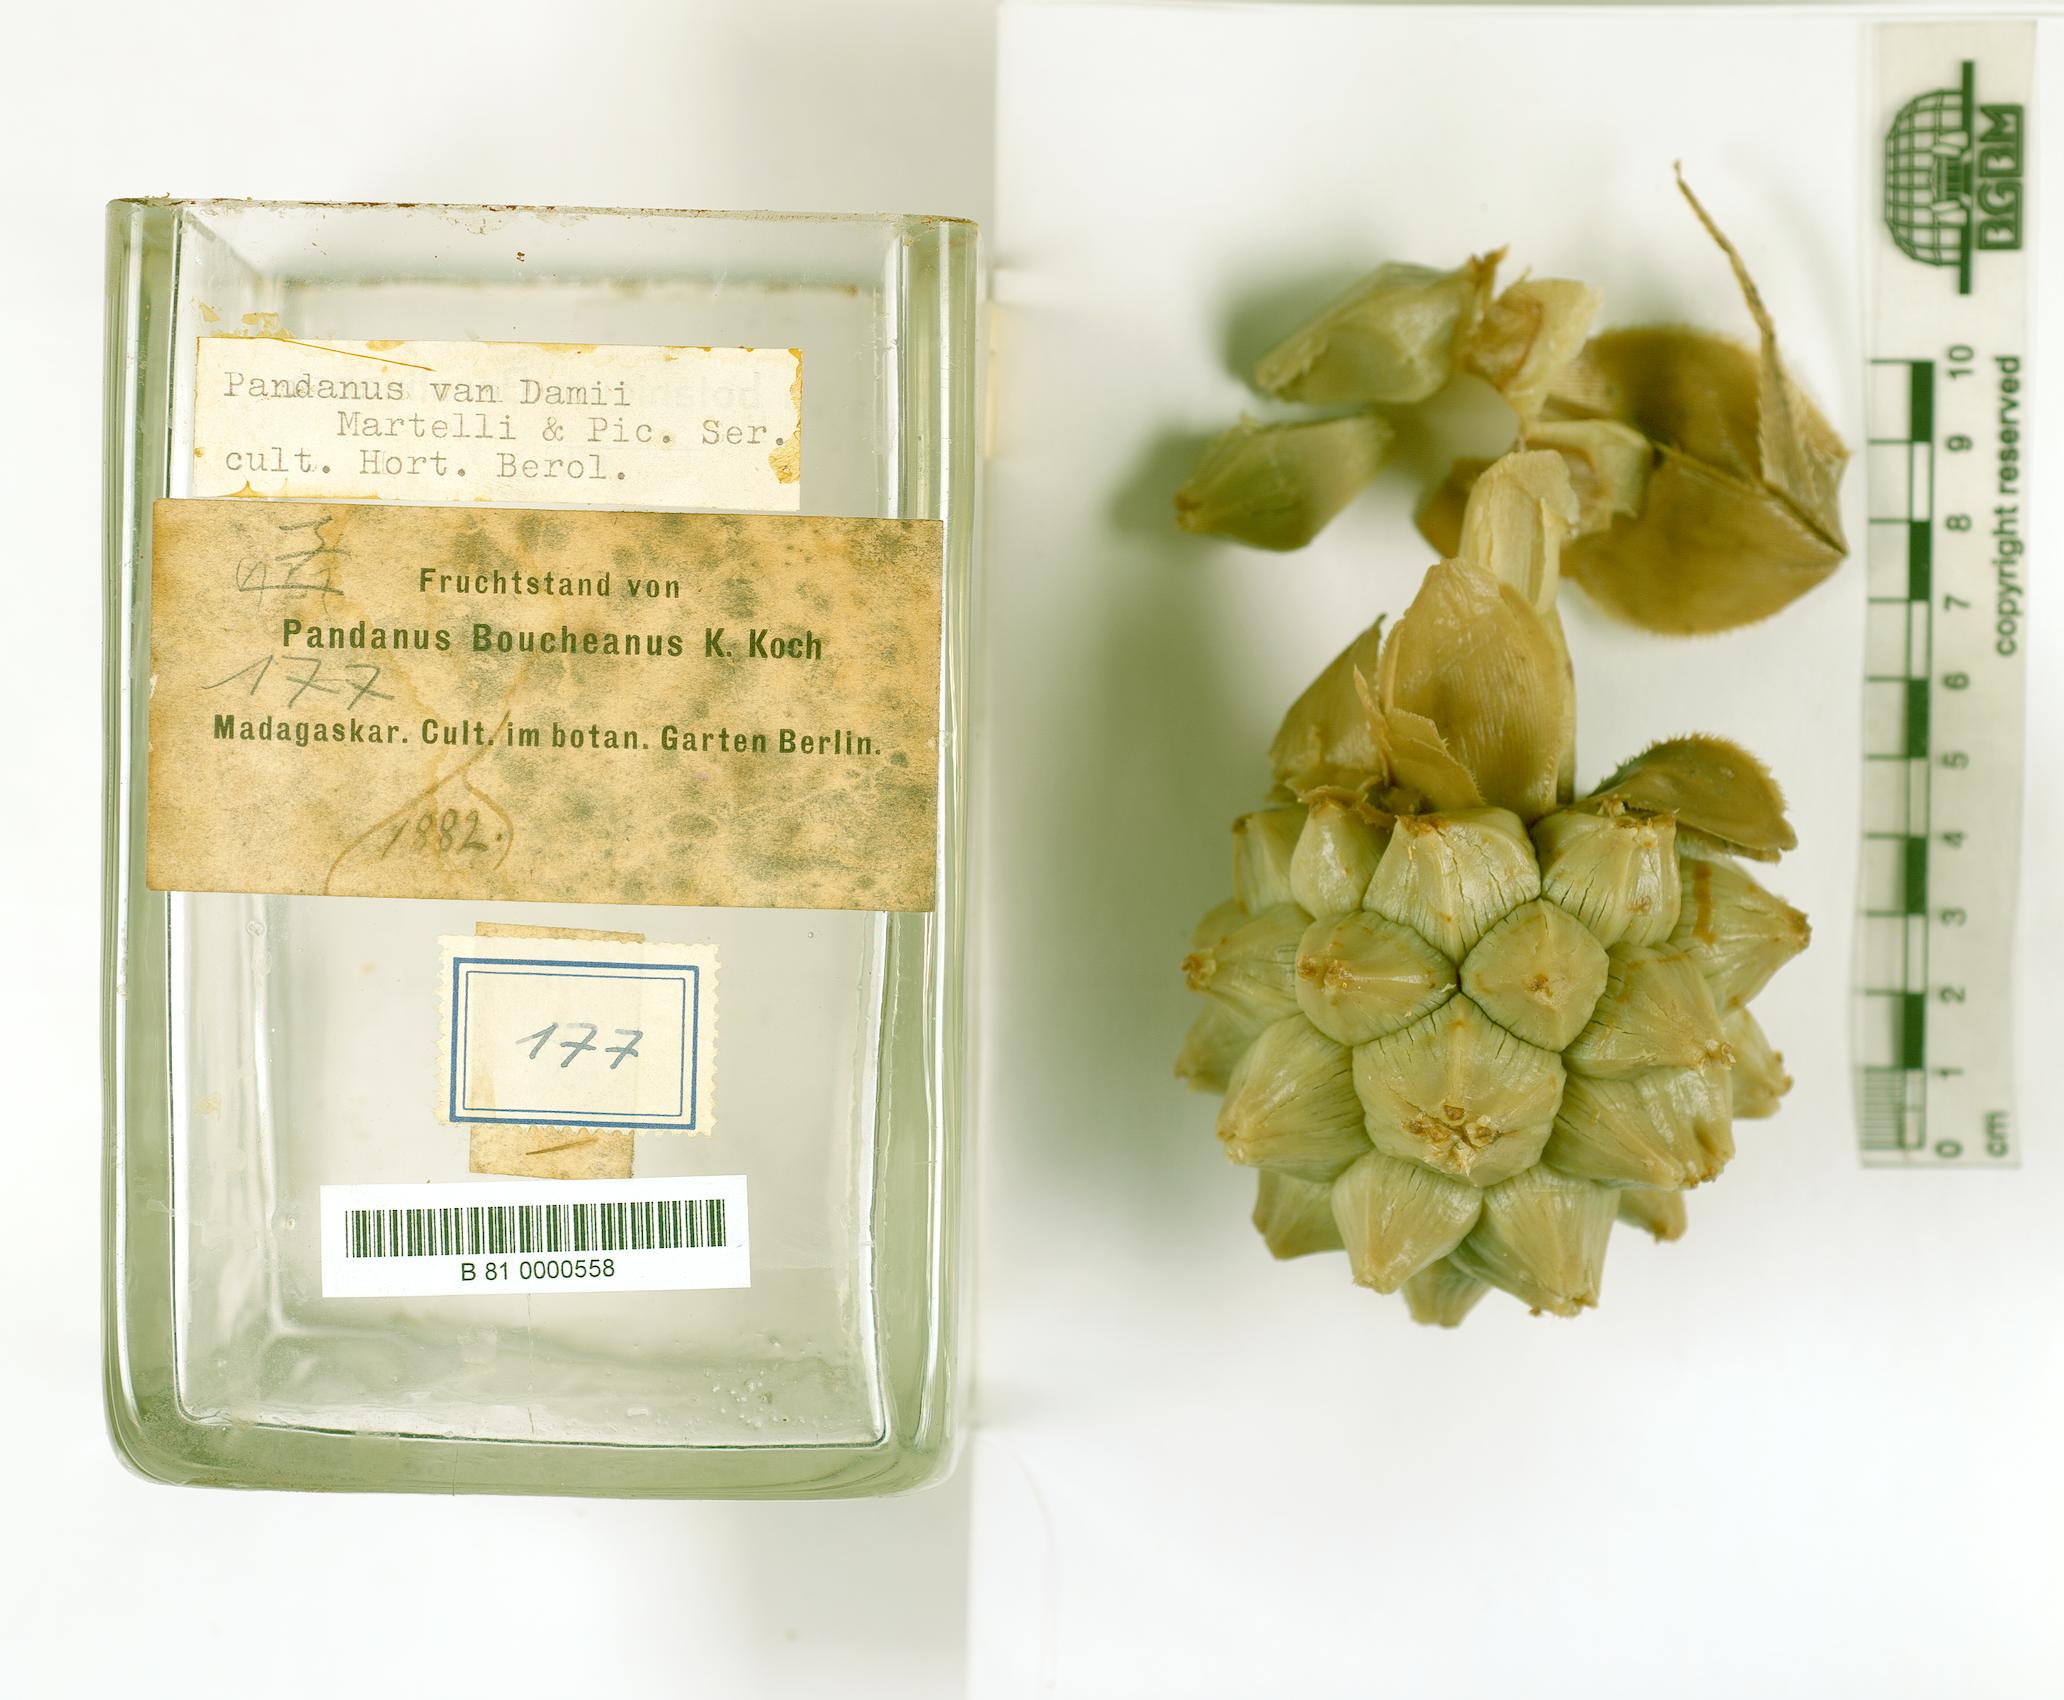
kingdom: Plantae
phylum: Tracheophyta
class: Liliopsida
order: Pandanales
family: Pandanaceae
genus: Pandanus
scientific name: Pandanus vandamii
